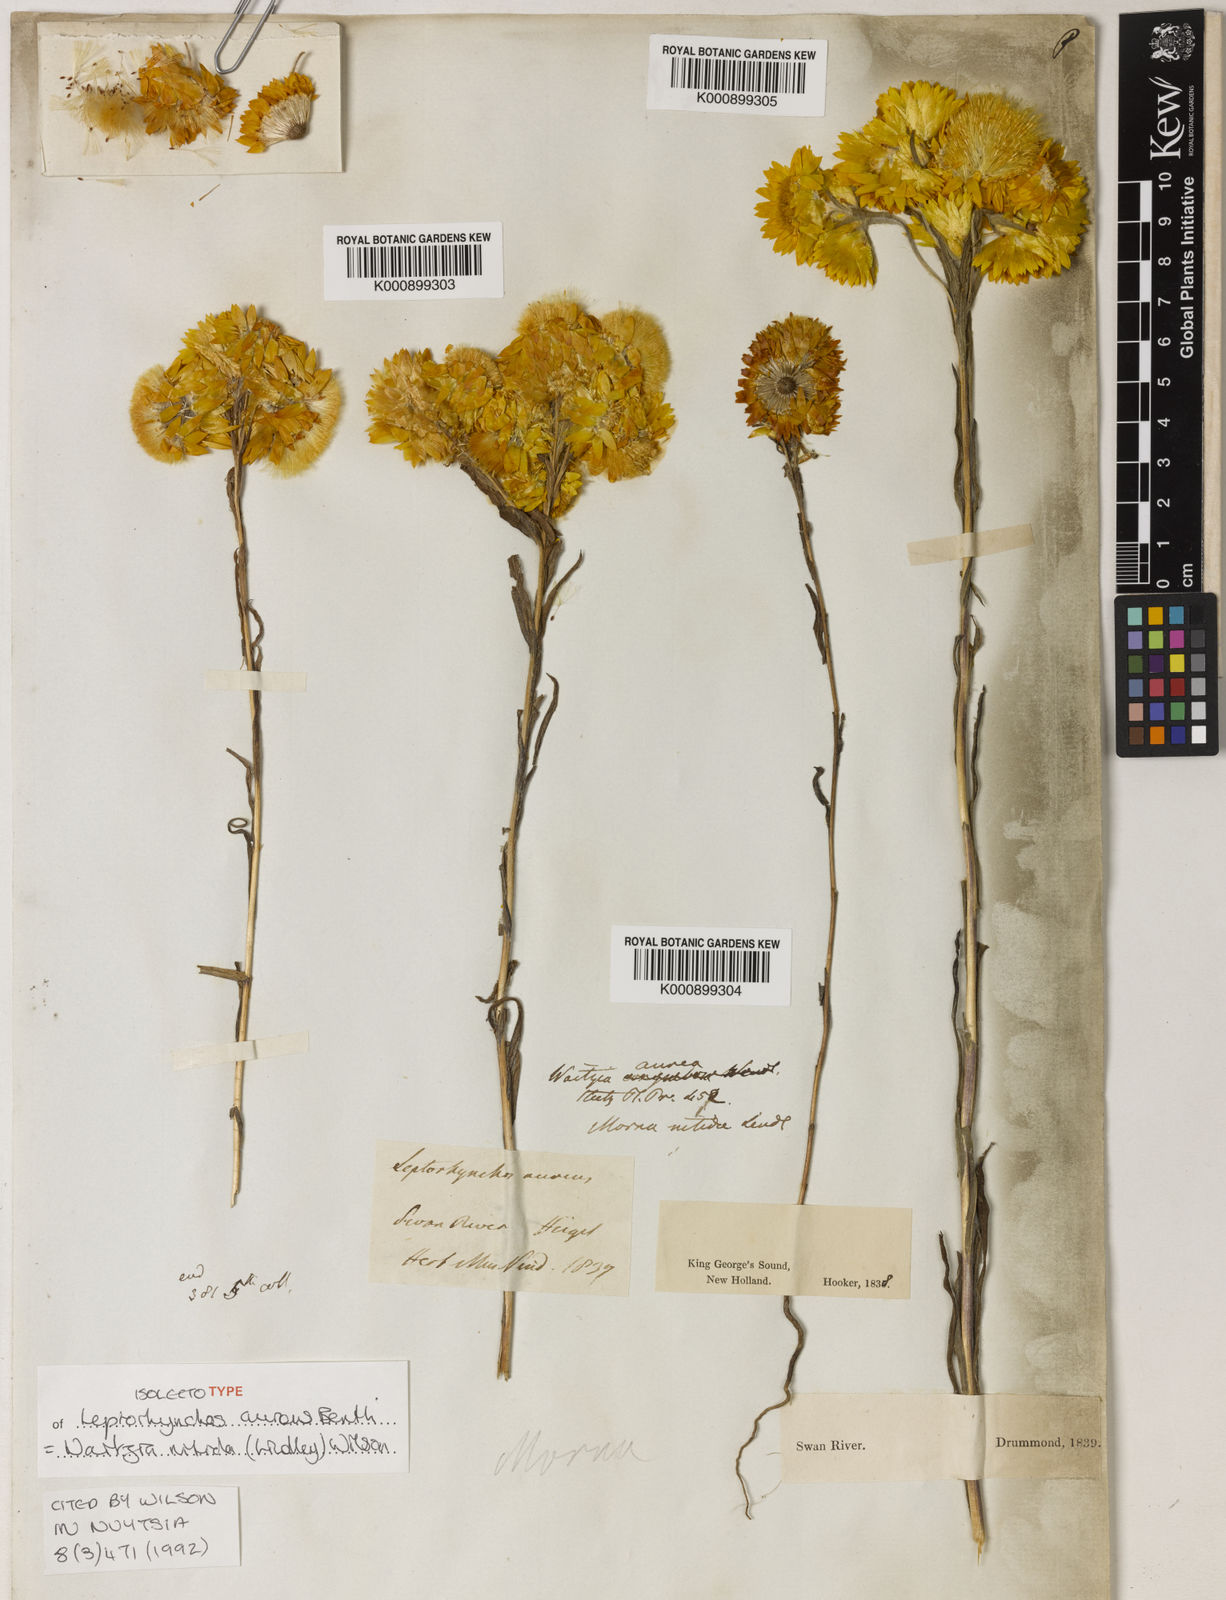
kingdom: Plantae
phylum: Tracheophyta
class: Magnoliopsida
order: Asterales
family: Asteraceae
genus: Waitzia
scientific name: Waitzia suaveolens
